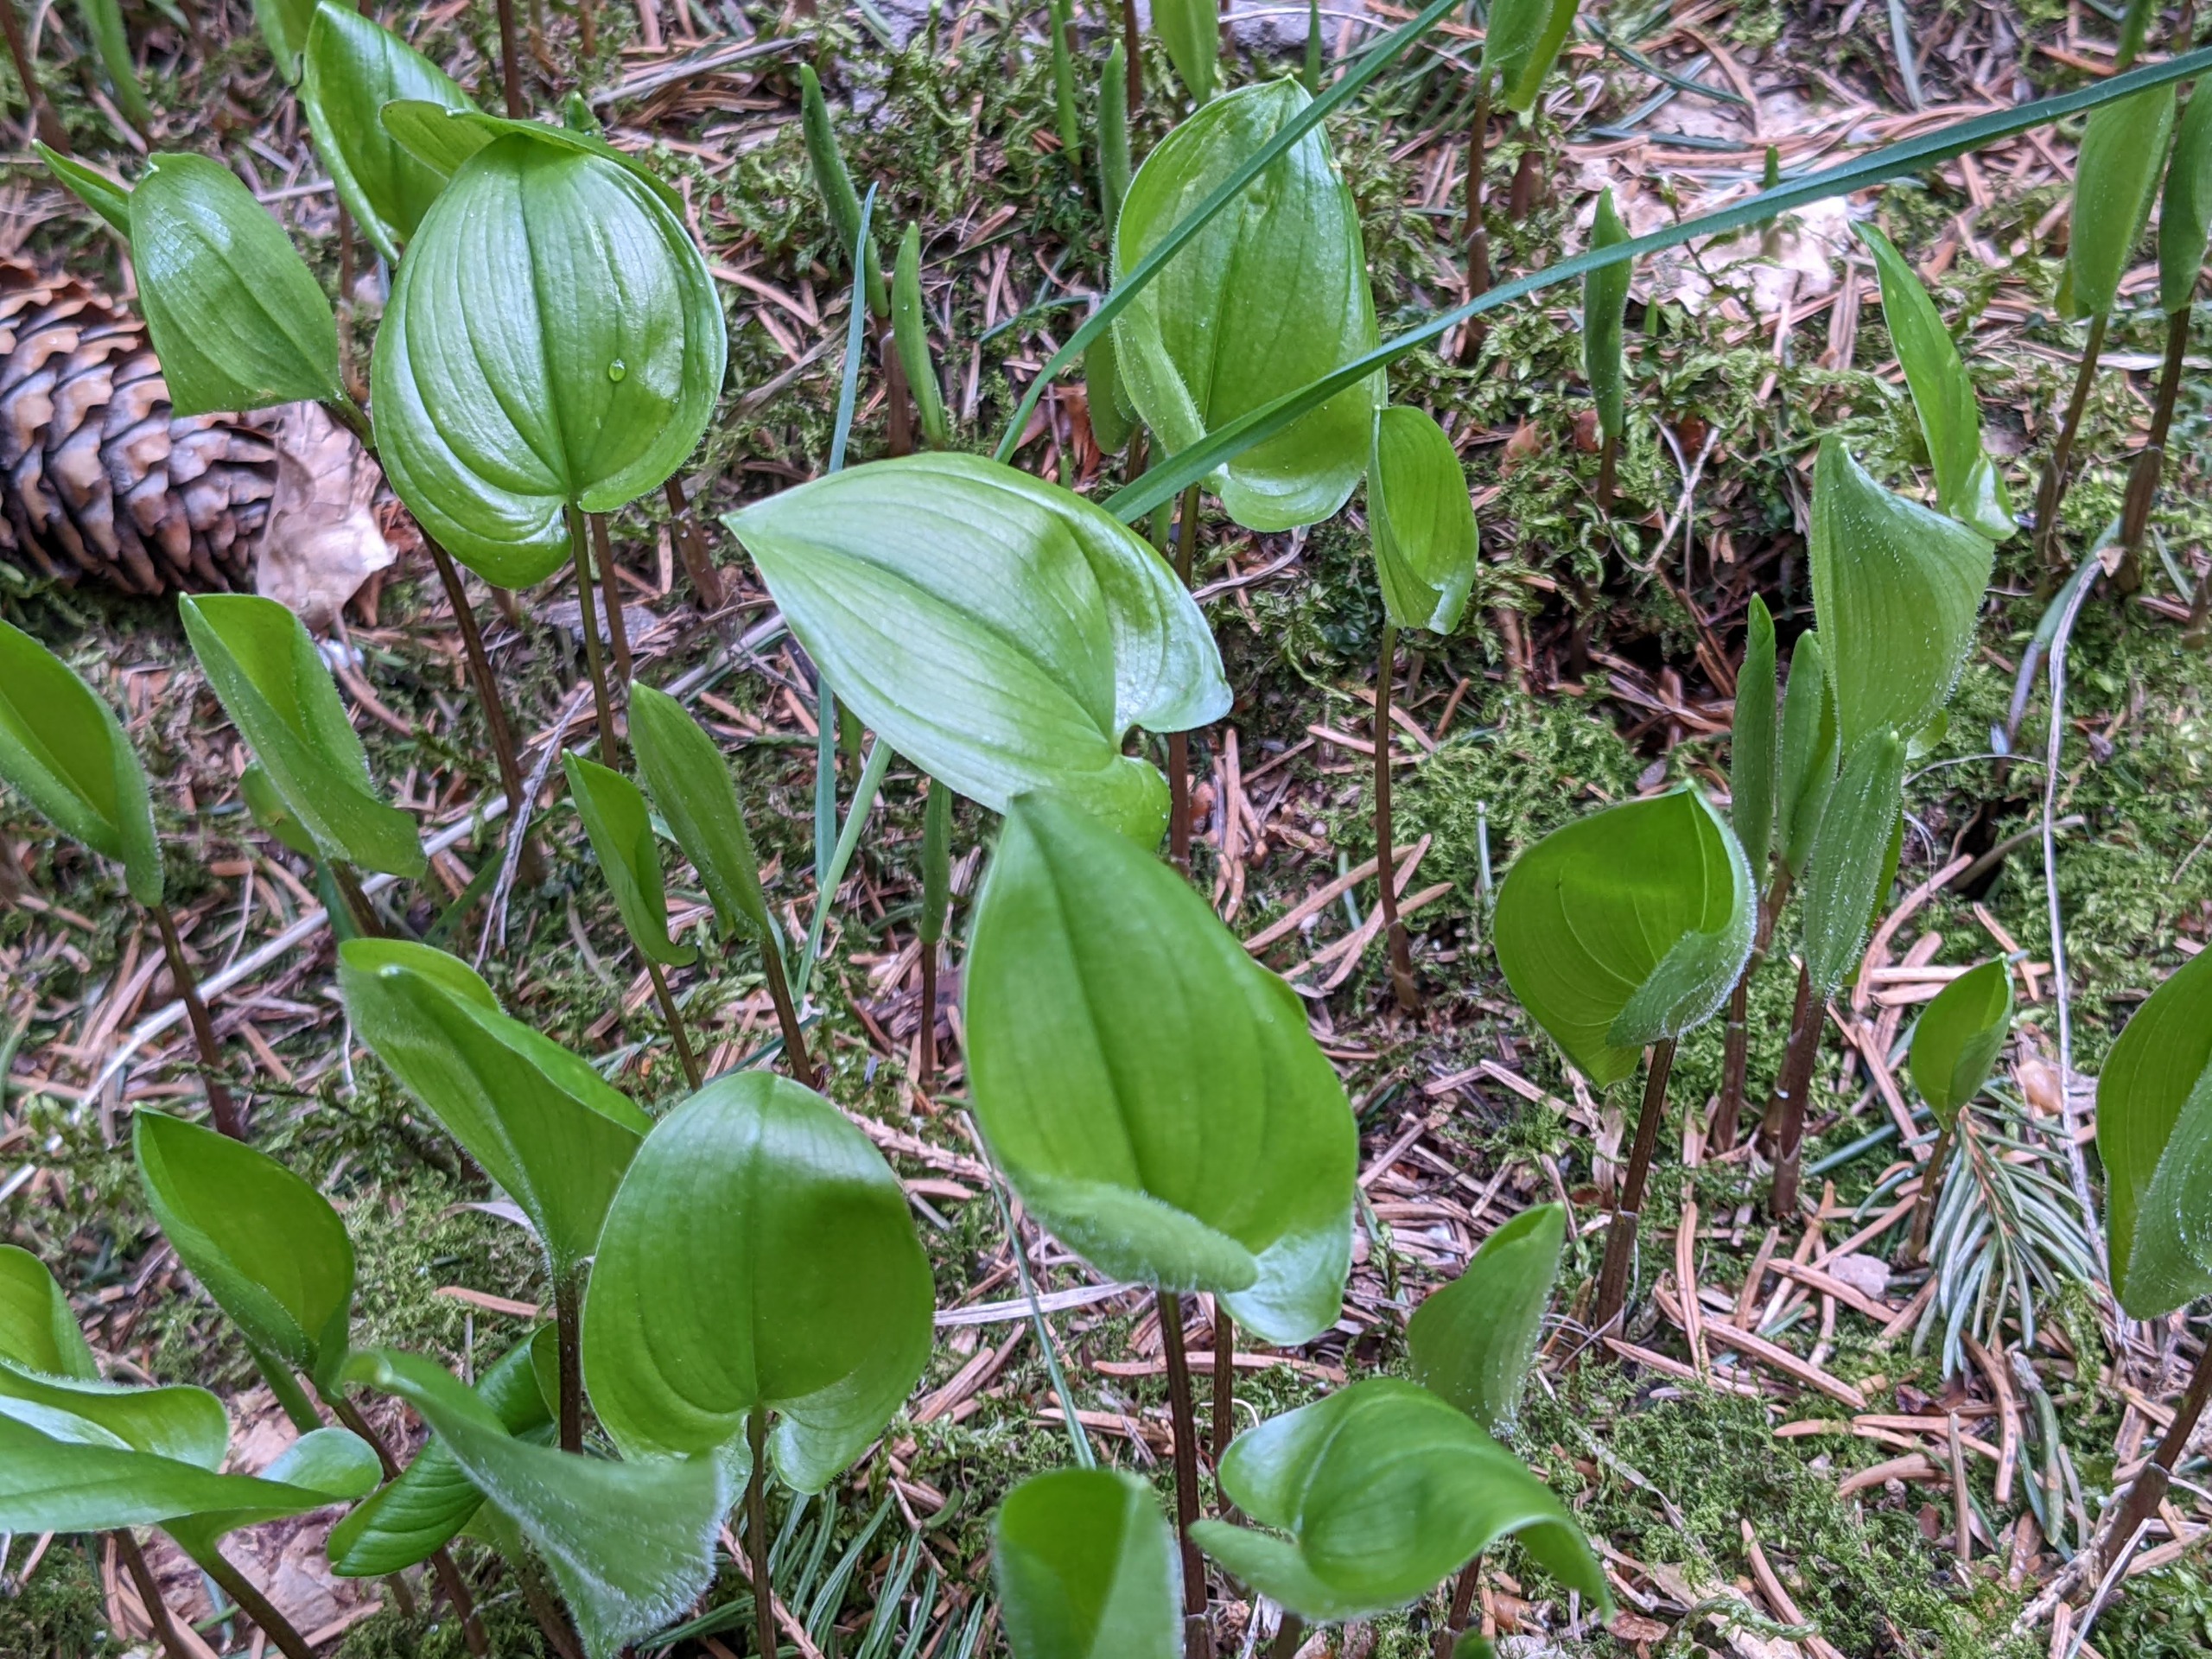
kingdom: Plantae
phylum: Tracheophyta
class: Liliopsida
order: Asparagales
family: Asparagaceae
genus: Maianthemum
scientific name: Maianthemum bifolium
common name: Majblomst
